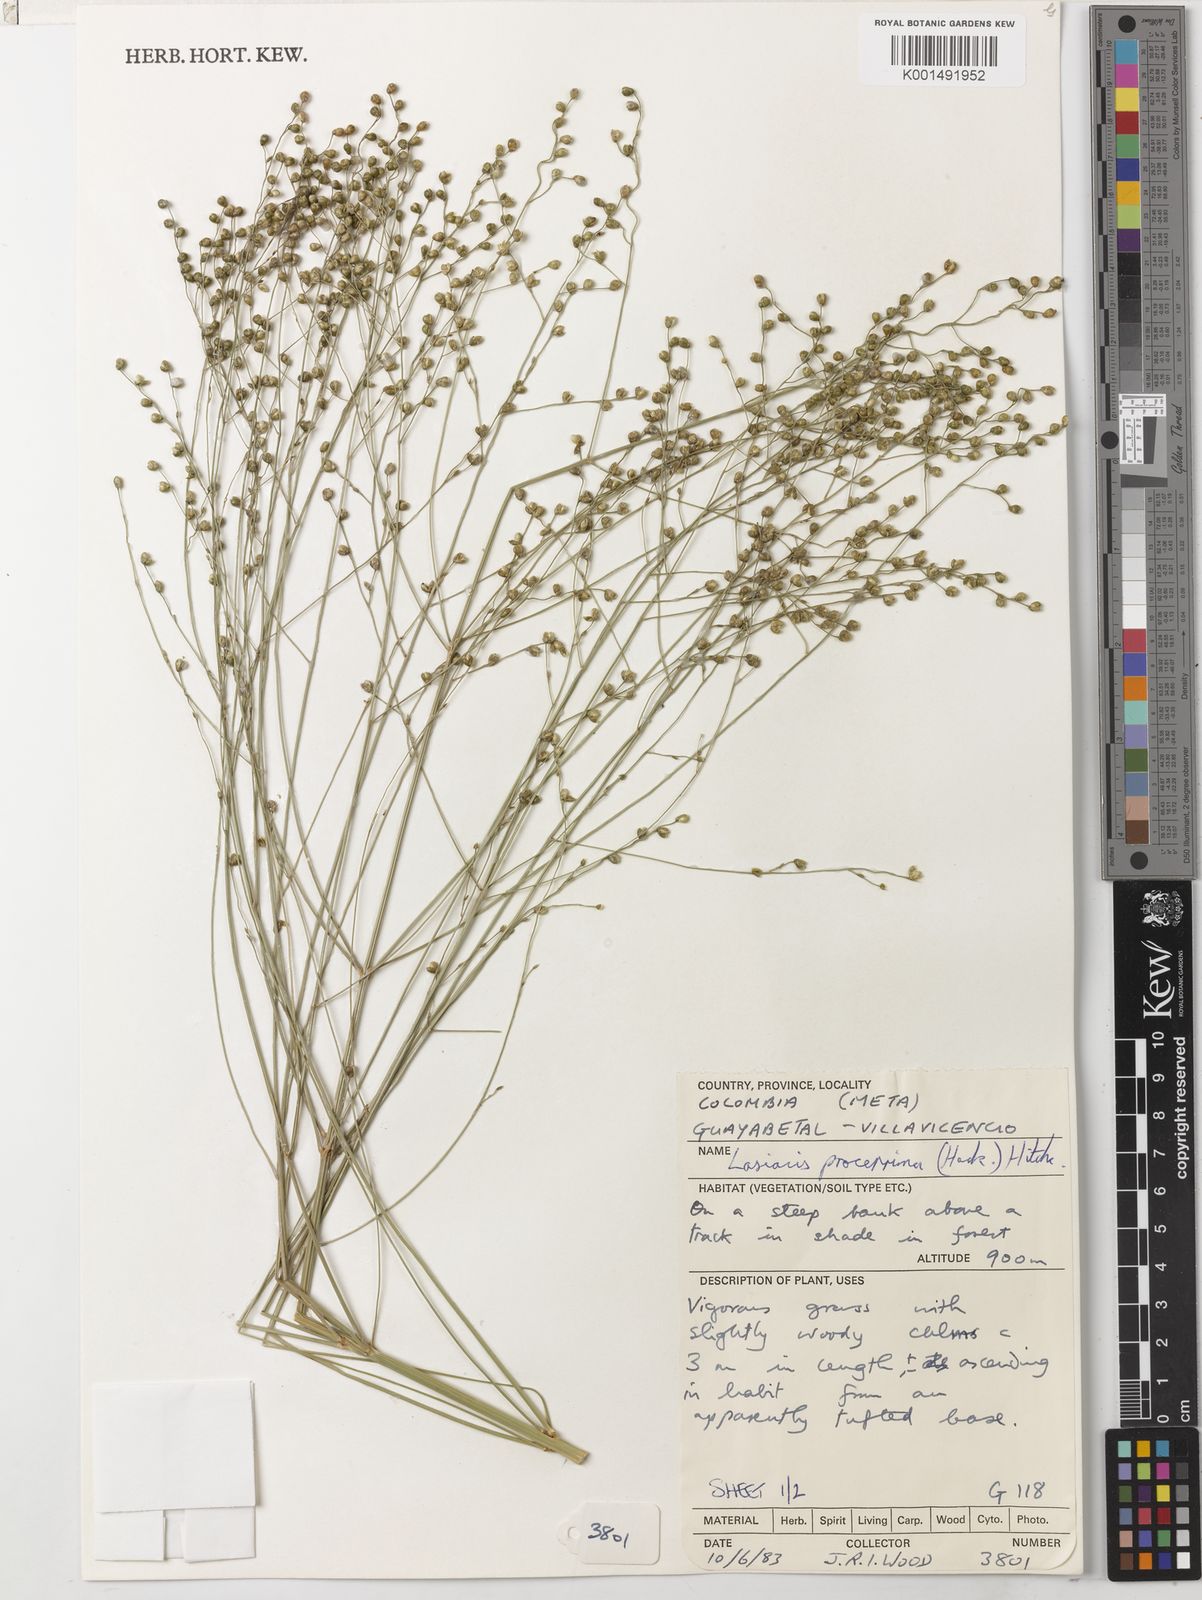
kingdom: Plantae
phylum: Tracheophyta
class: Liliopsida
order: Poales
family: Poaceae
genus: Lasiacis
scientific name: Lasiacis procerrima
